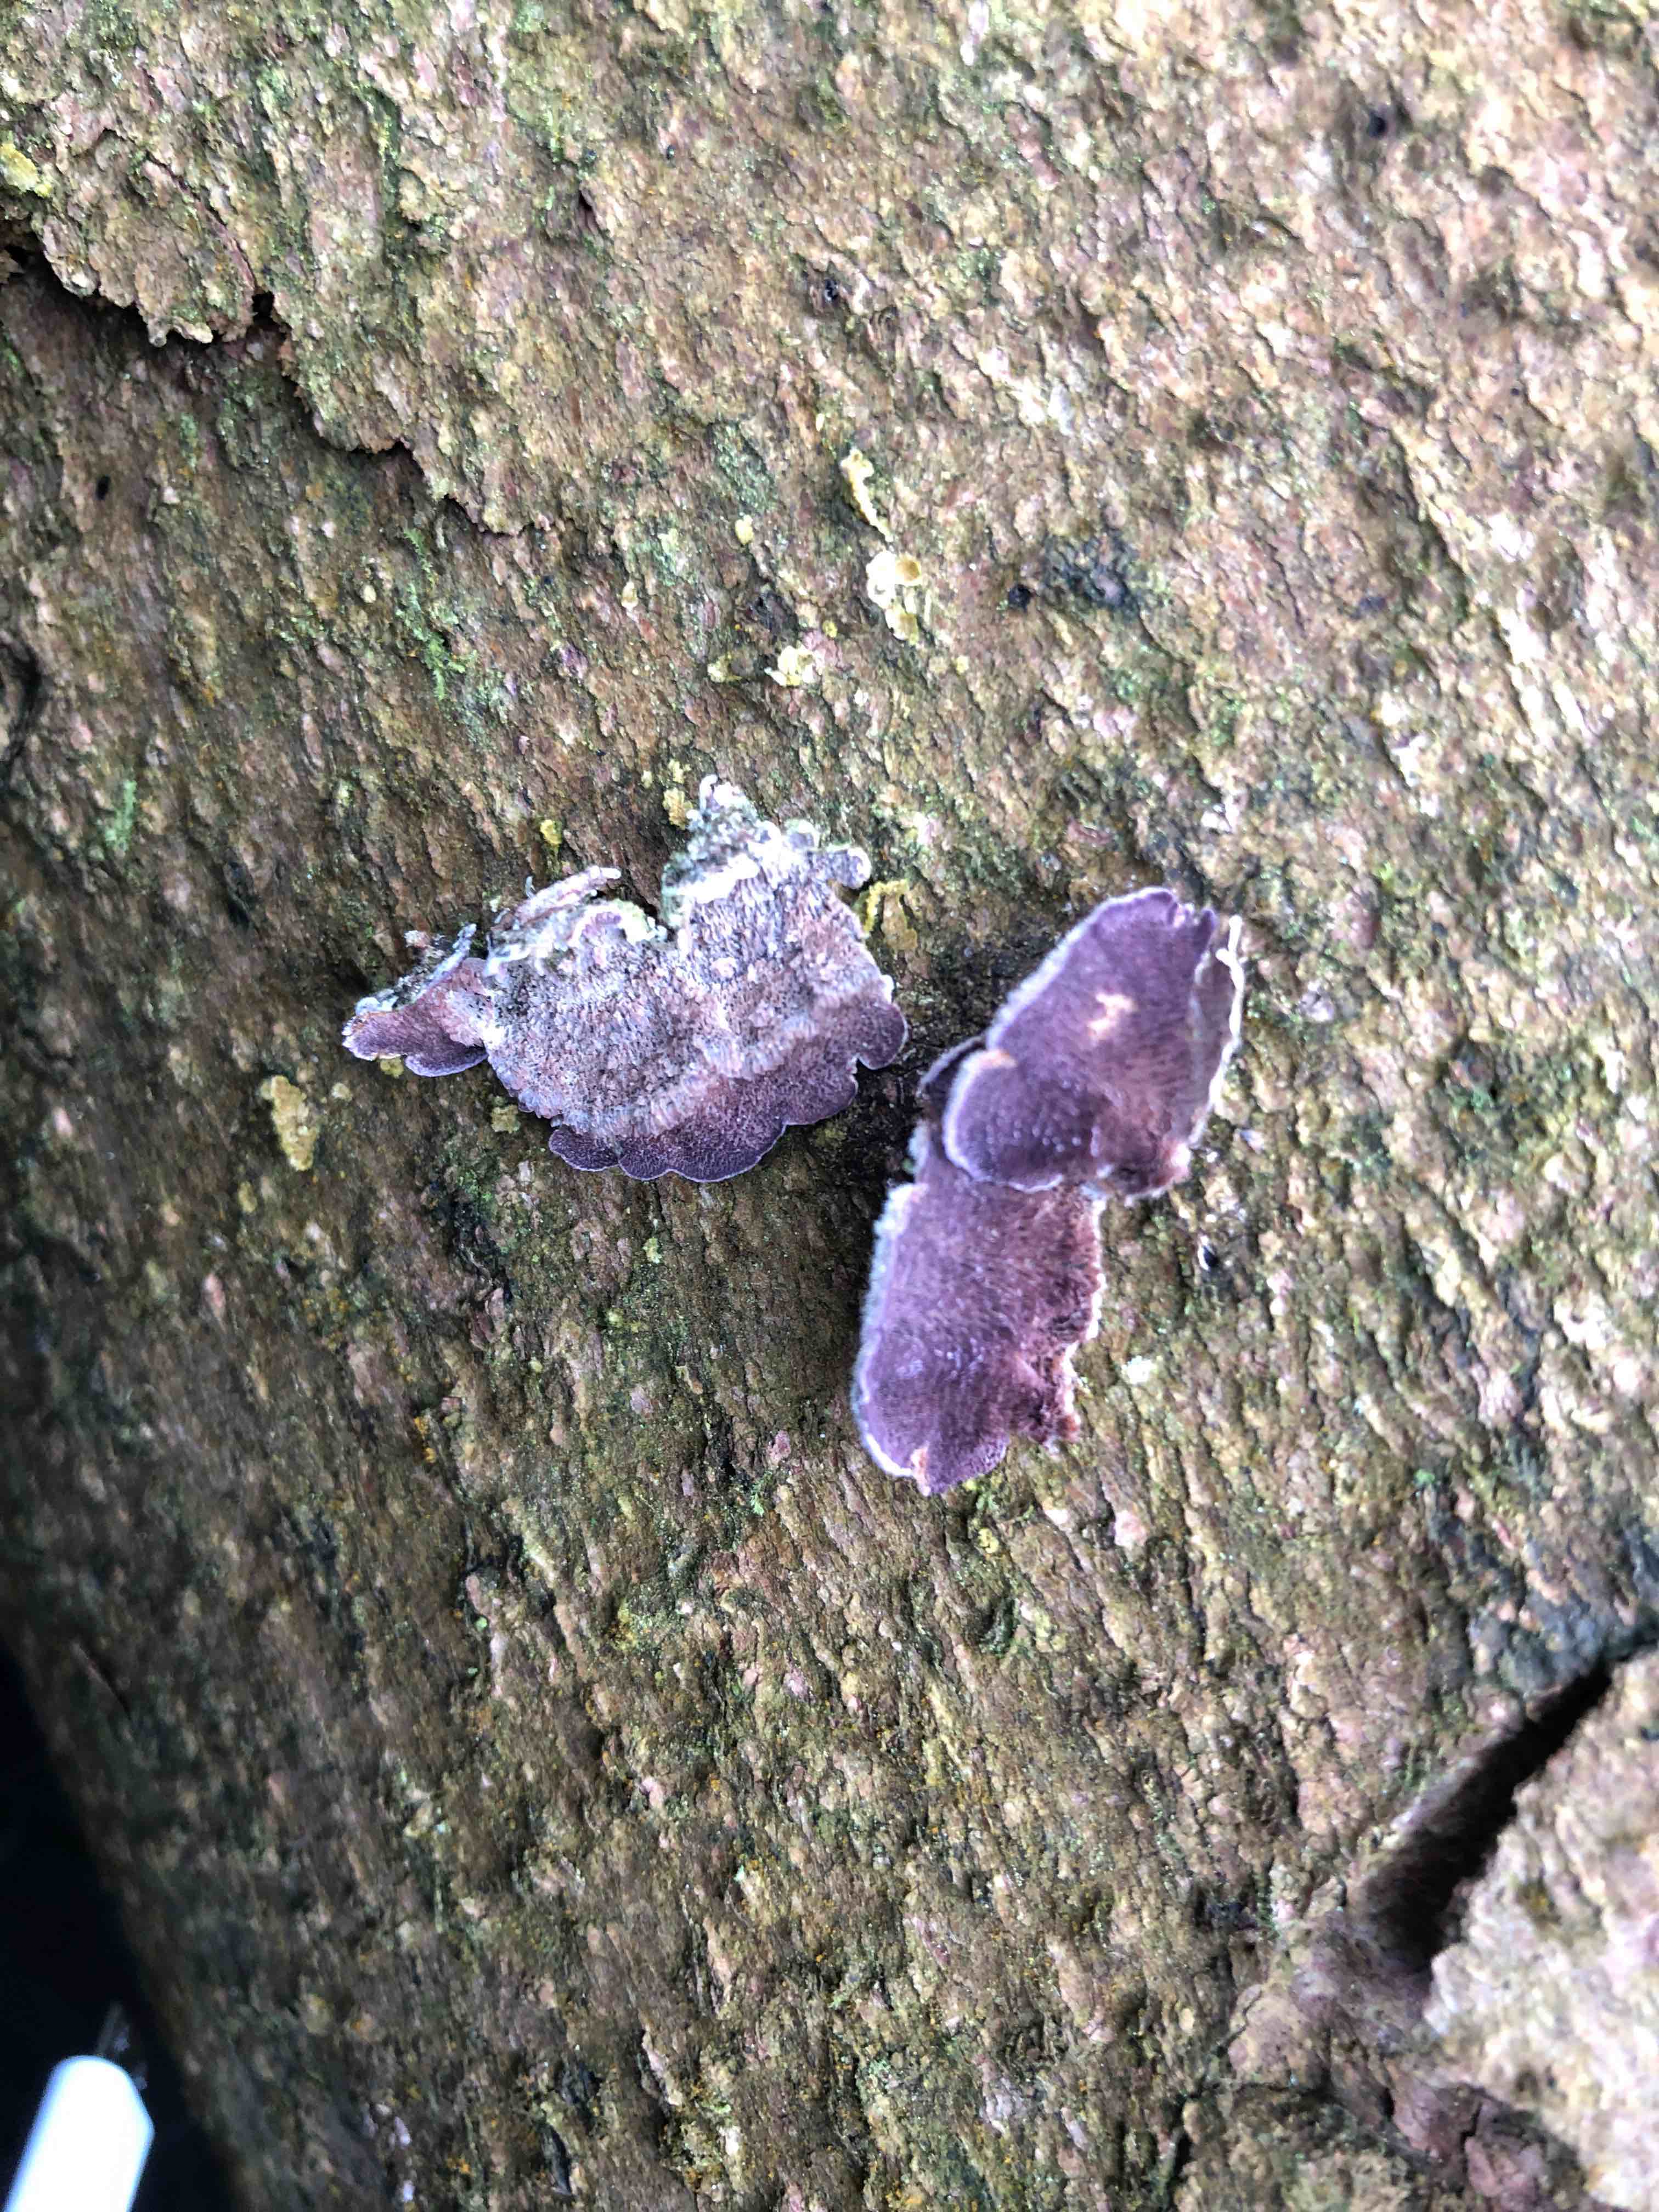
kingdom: Fungi
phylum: Basidiomycota
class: Agaricomycetes
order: Hymenochaetales
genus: Trichaptum
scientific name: Trichaptum abietinum
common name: almindelig violporesvamp
